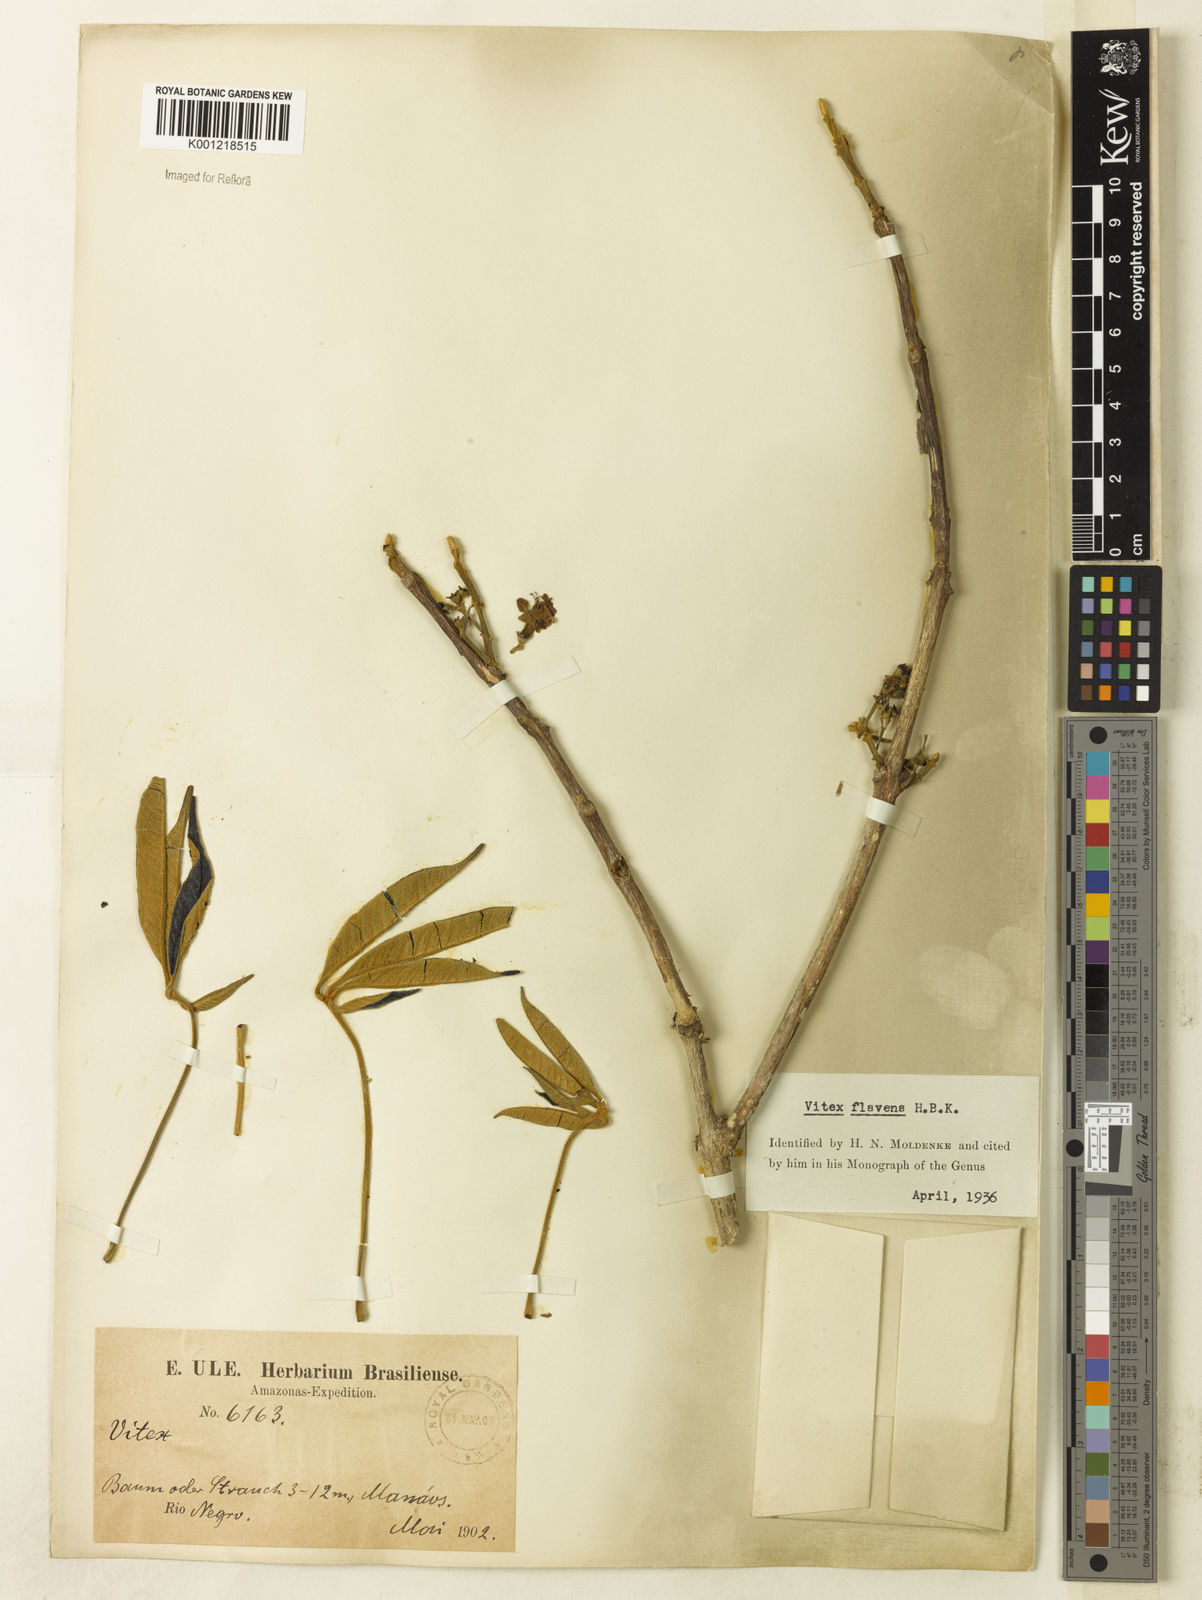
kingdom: Plantae
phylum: Tracheophyta
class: Magnoliopsida
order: Lamiales
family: Lamiaceae
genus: Vitex
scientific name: Vitex flavens
